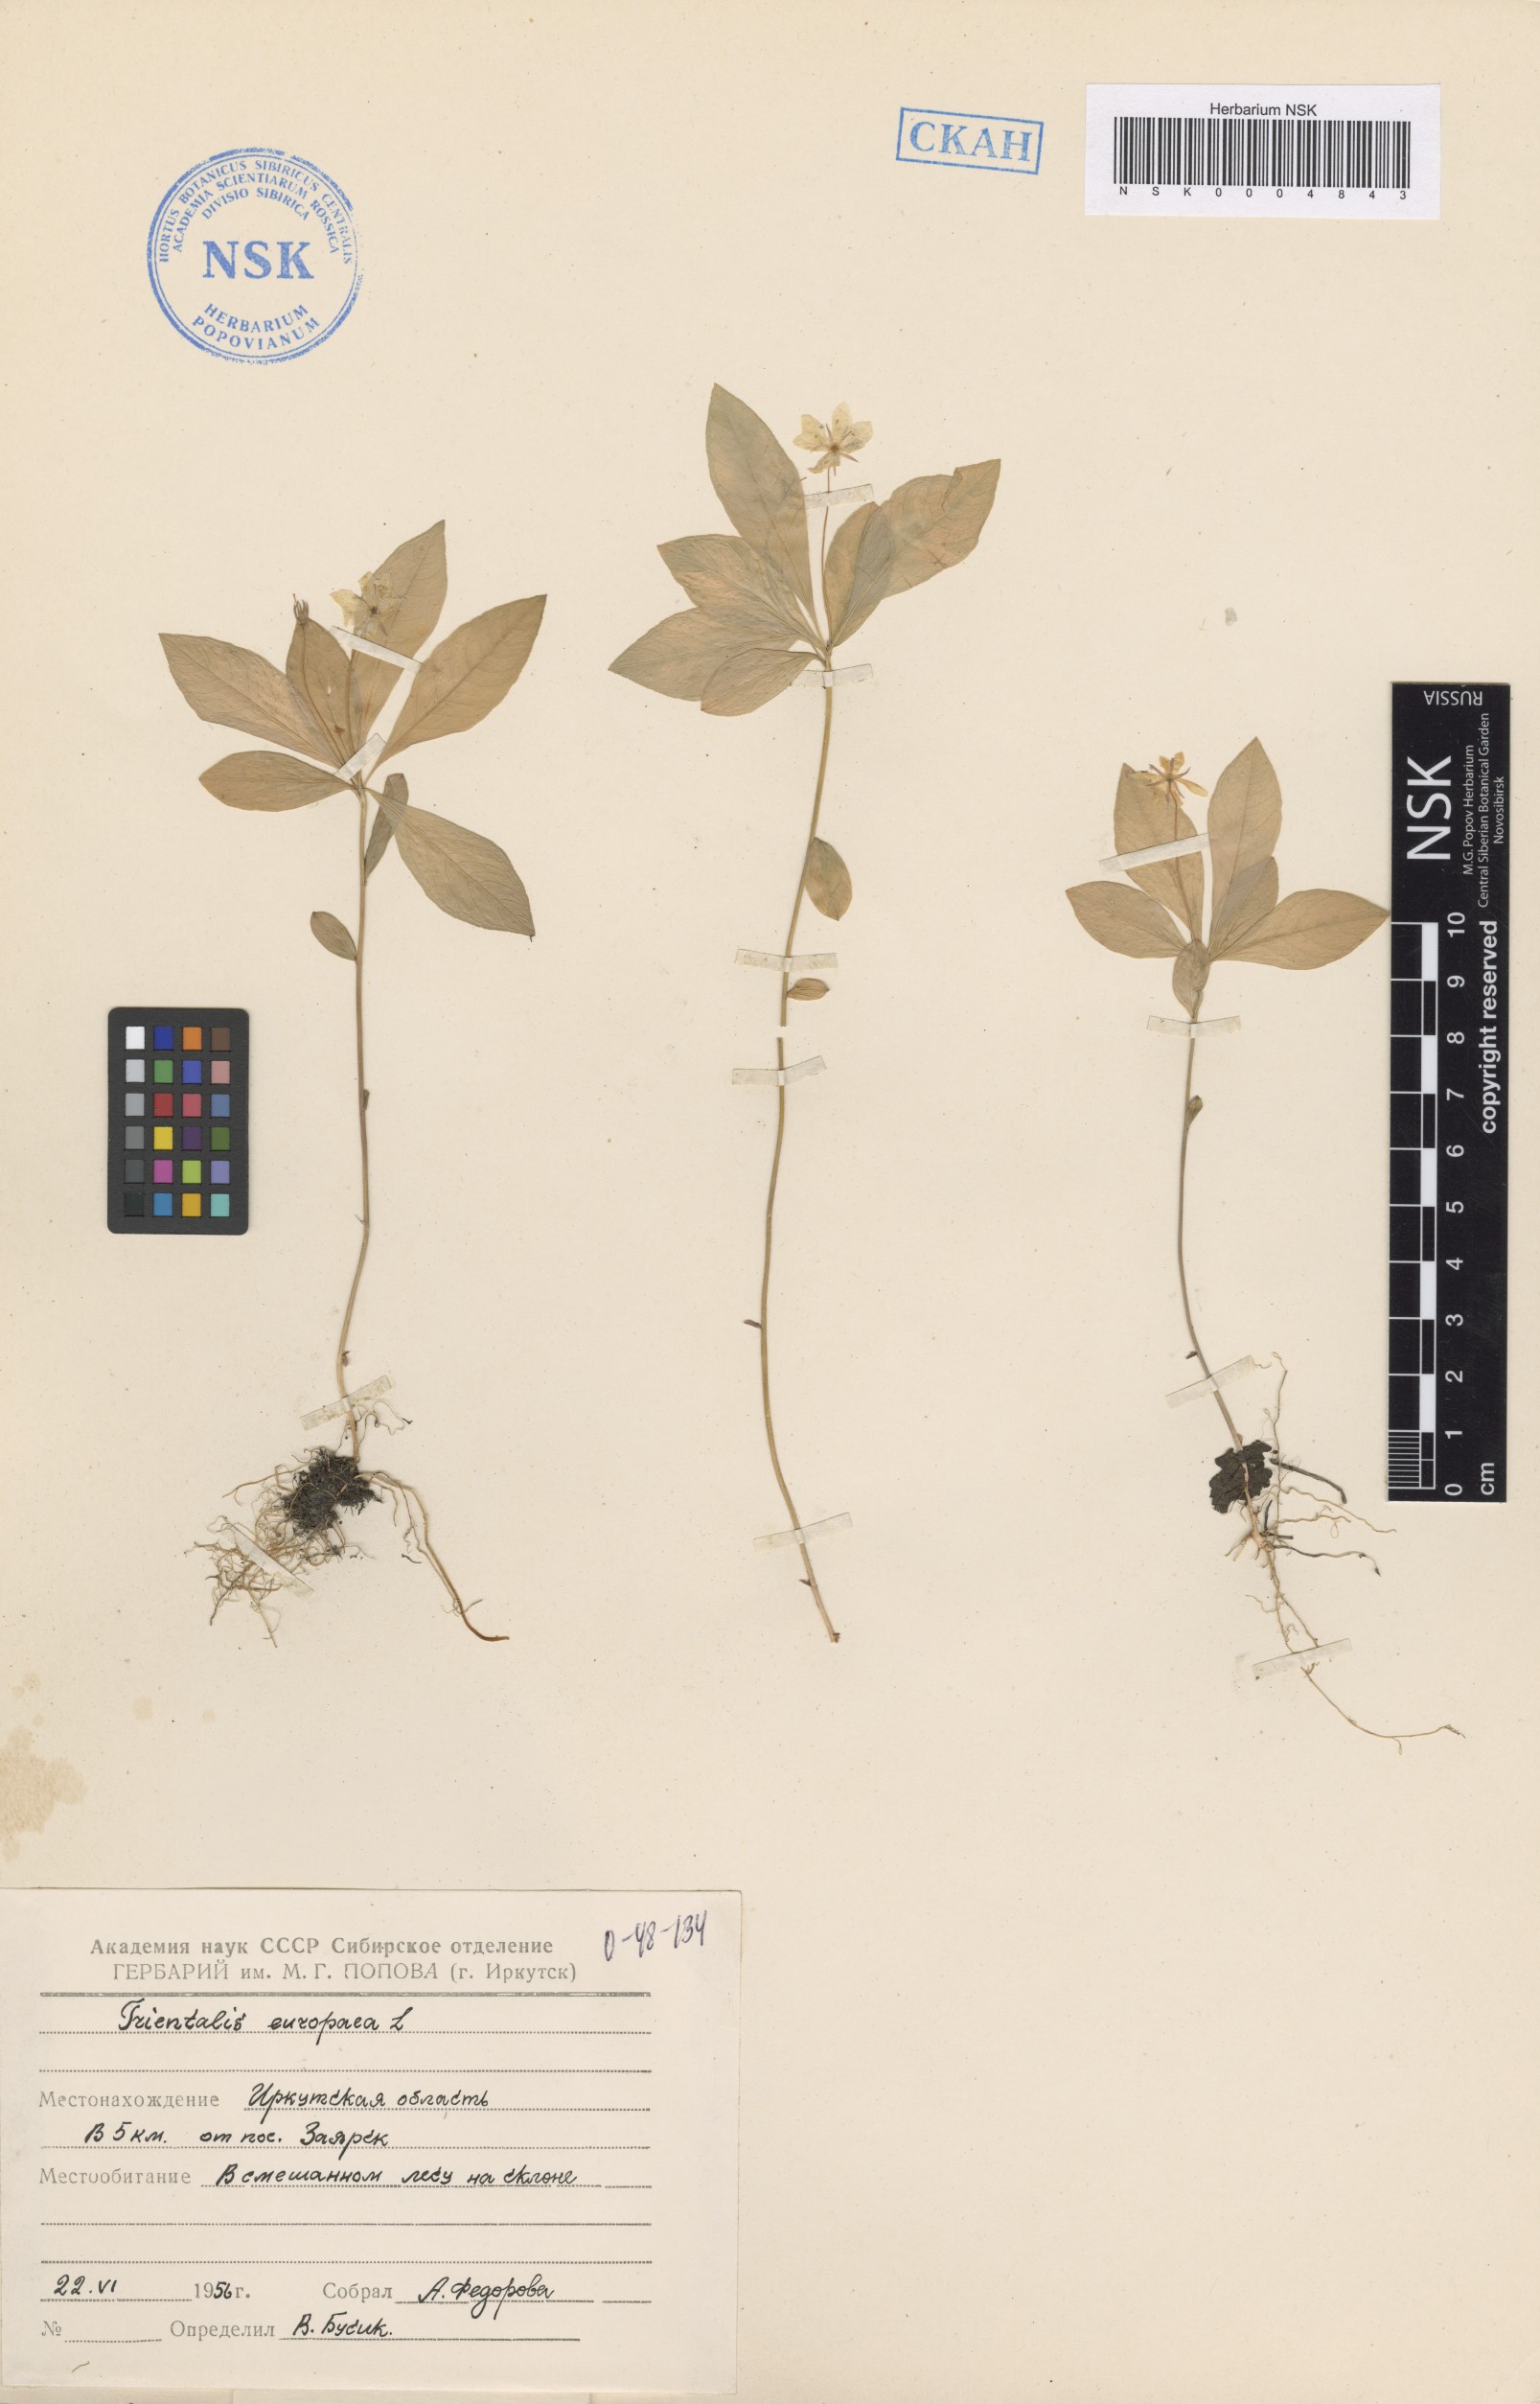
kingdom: Plantae
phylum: Tracheophyta
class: Magnoliopsida
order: Ericales
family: Primulaceae
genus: Lysimachia
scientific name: Lysimachia europaea
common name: Arctic starflower
